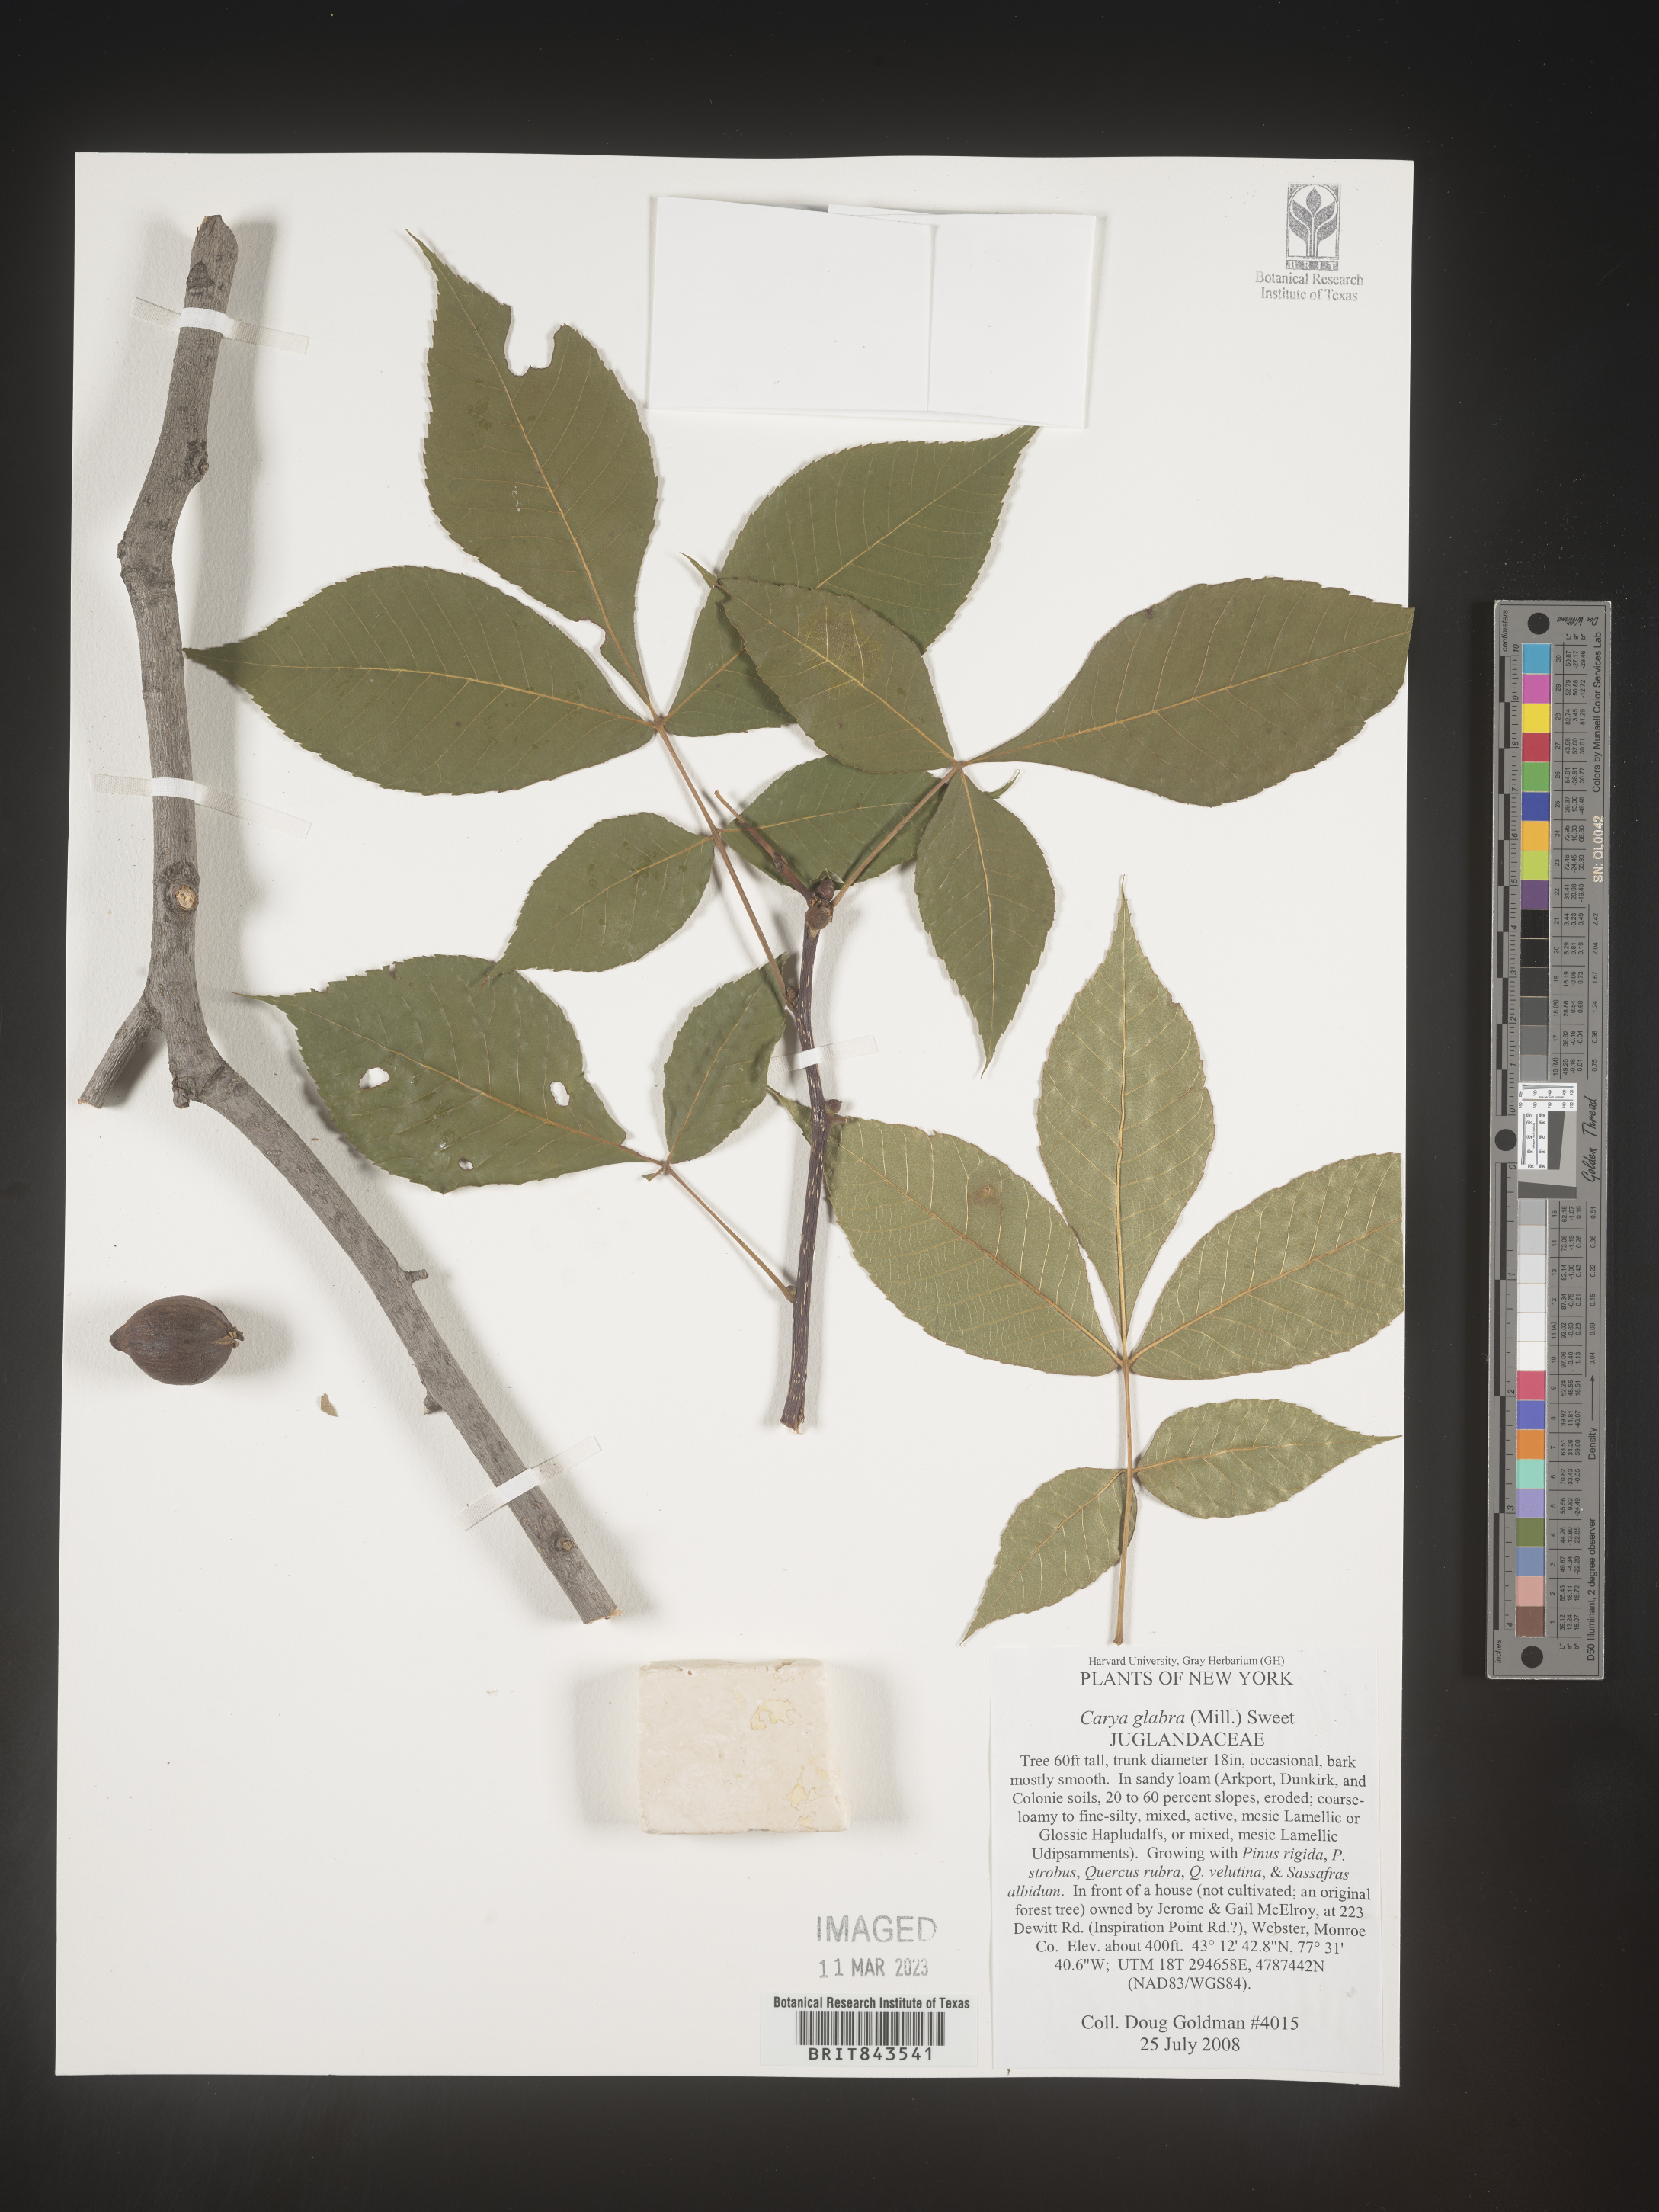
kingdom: Plantae
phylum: Tracheophyta
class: Magnoliopsida
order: Fagales
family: Juglandaceae
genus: Carya
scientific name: Carya glabra
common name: Pignut hickory
